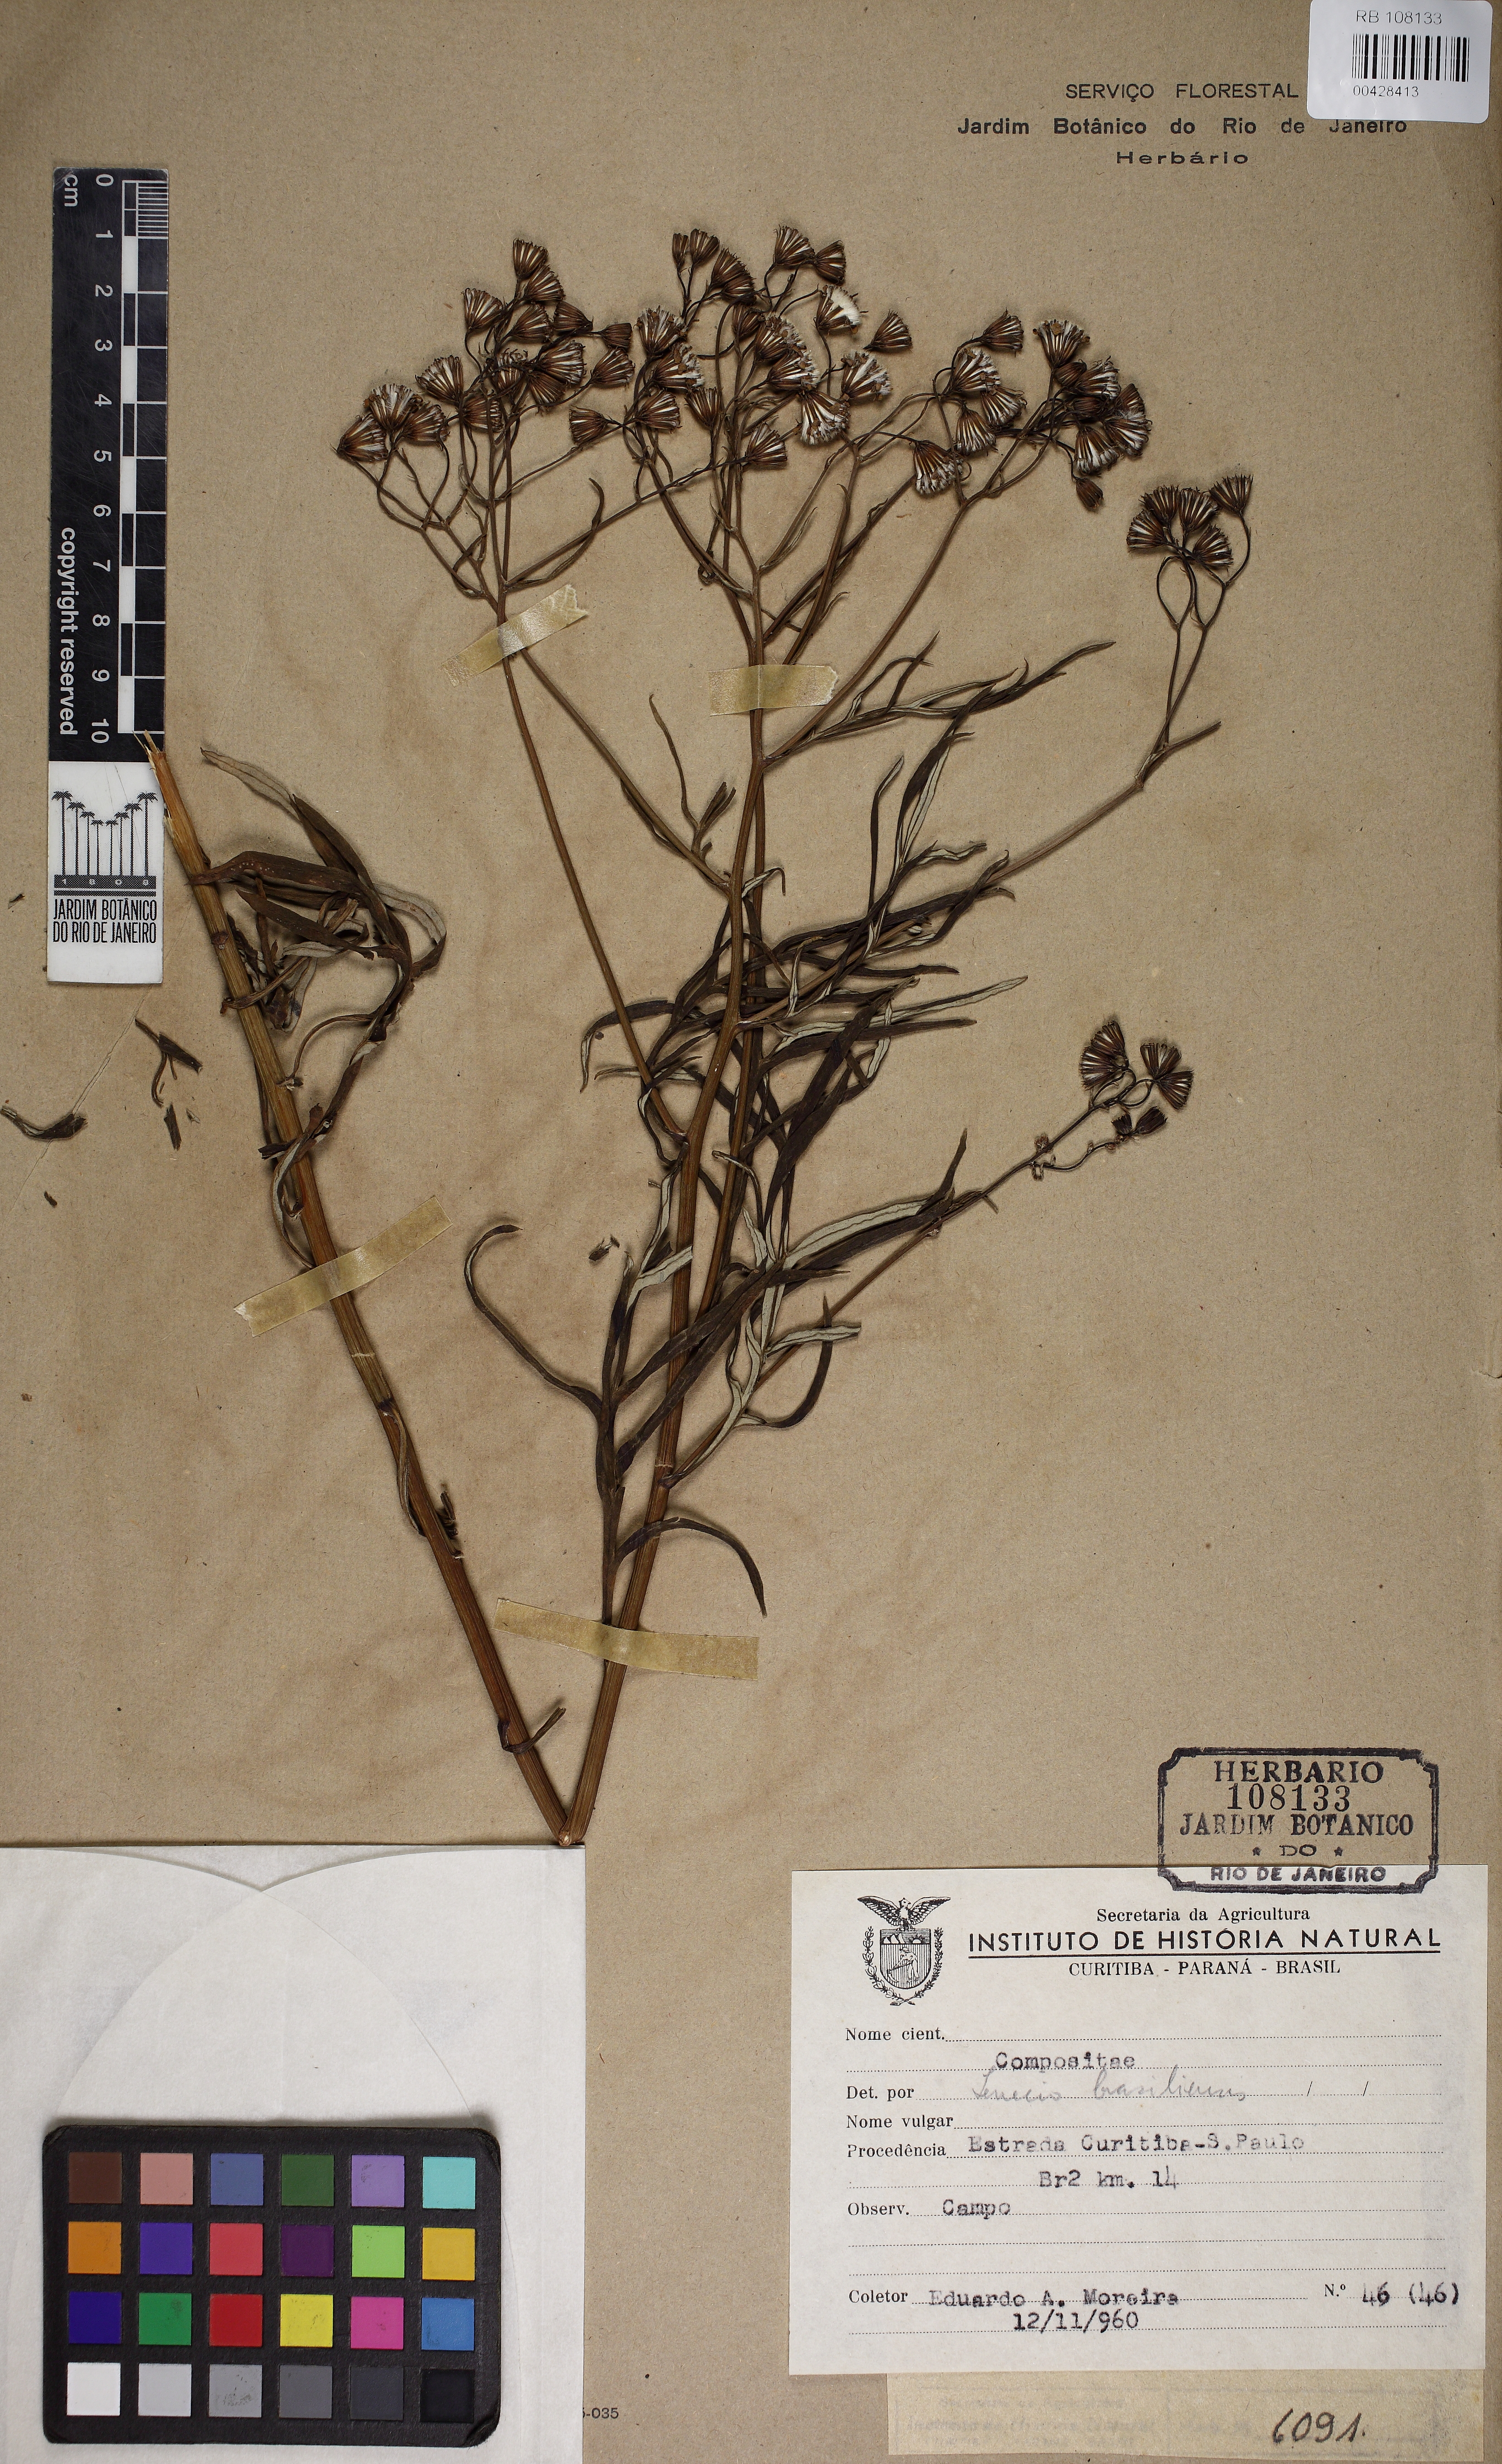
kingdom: Plantae
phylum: Tracheophyta
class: Magnoliopsida
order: Asterales
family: Asteraceae
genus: Senecio
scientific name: Senecio brasiliensis
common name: Hemp-leaf ragwort
